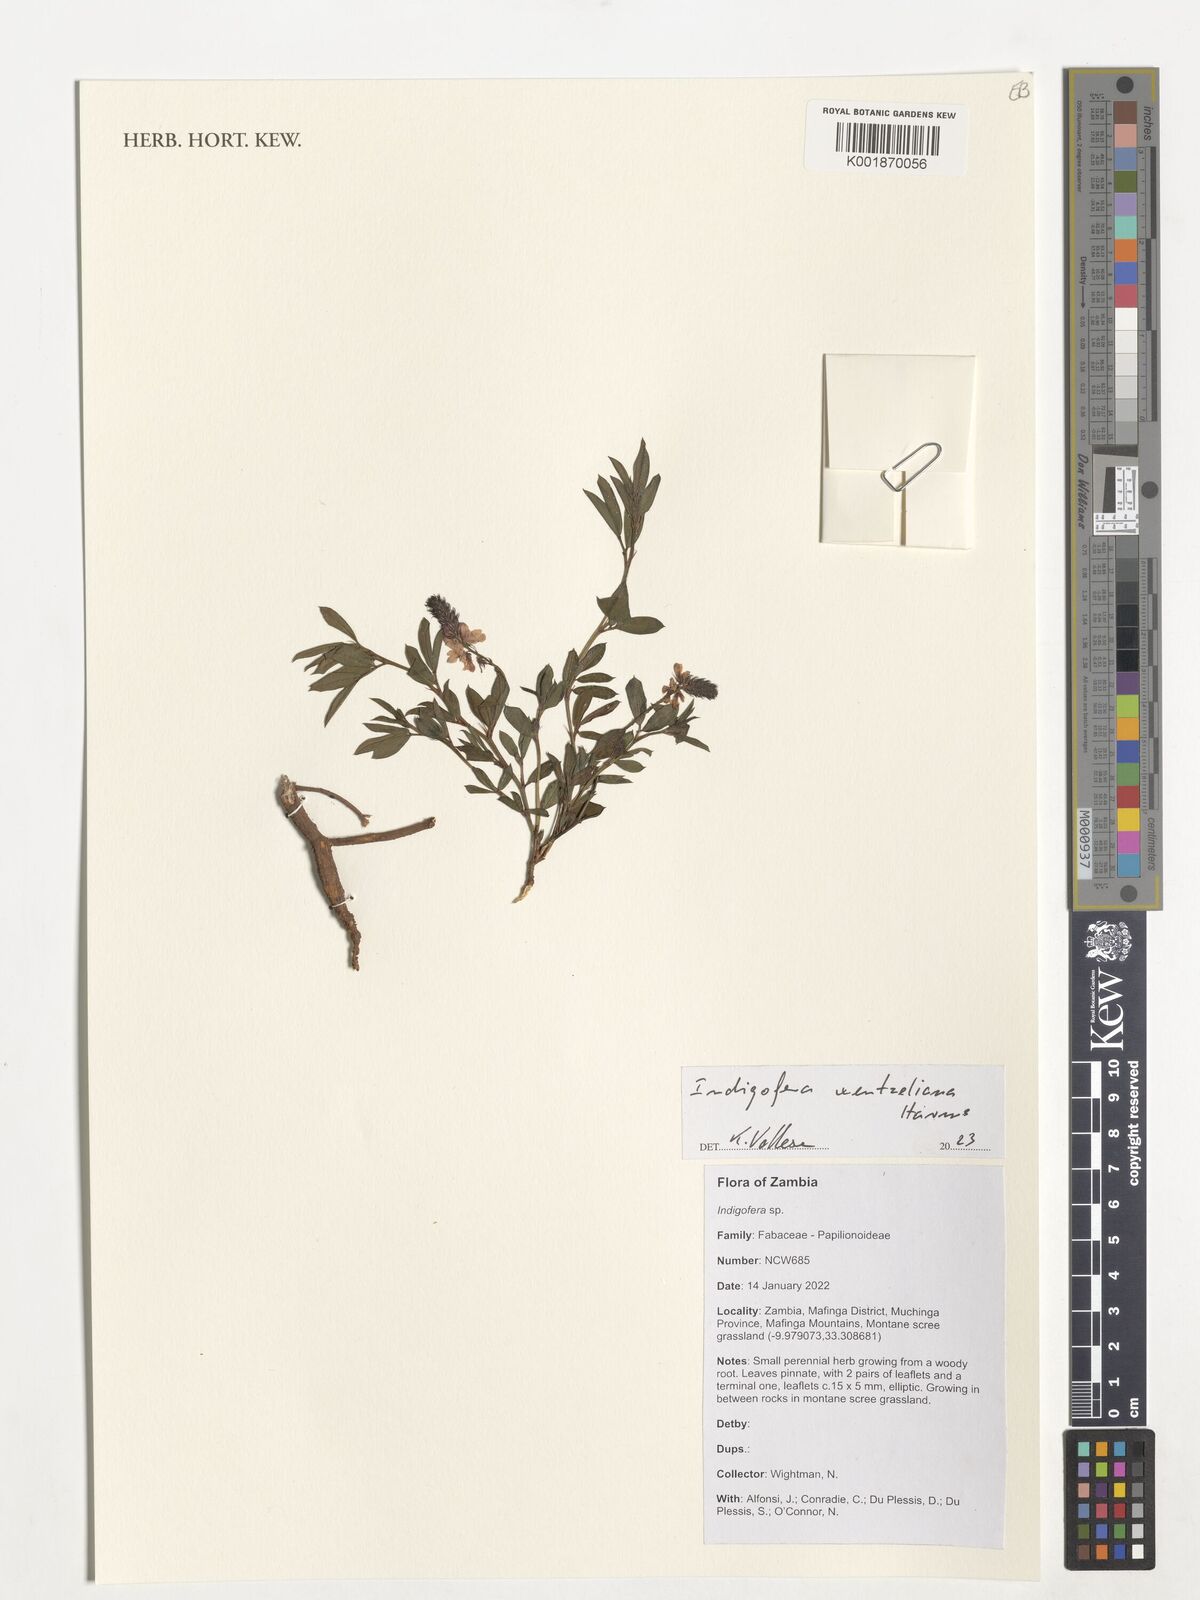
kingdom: Plantae
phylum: Tracheophyta
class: Magnoliopsida
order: Fabales
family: Fabaceae
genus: Indigofera
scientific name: Indigofera wentzeliana
